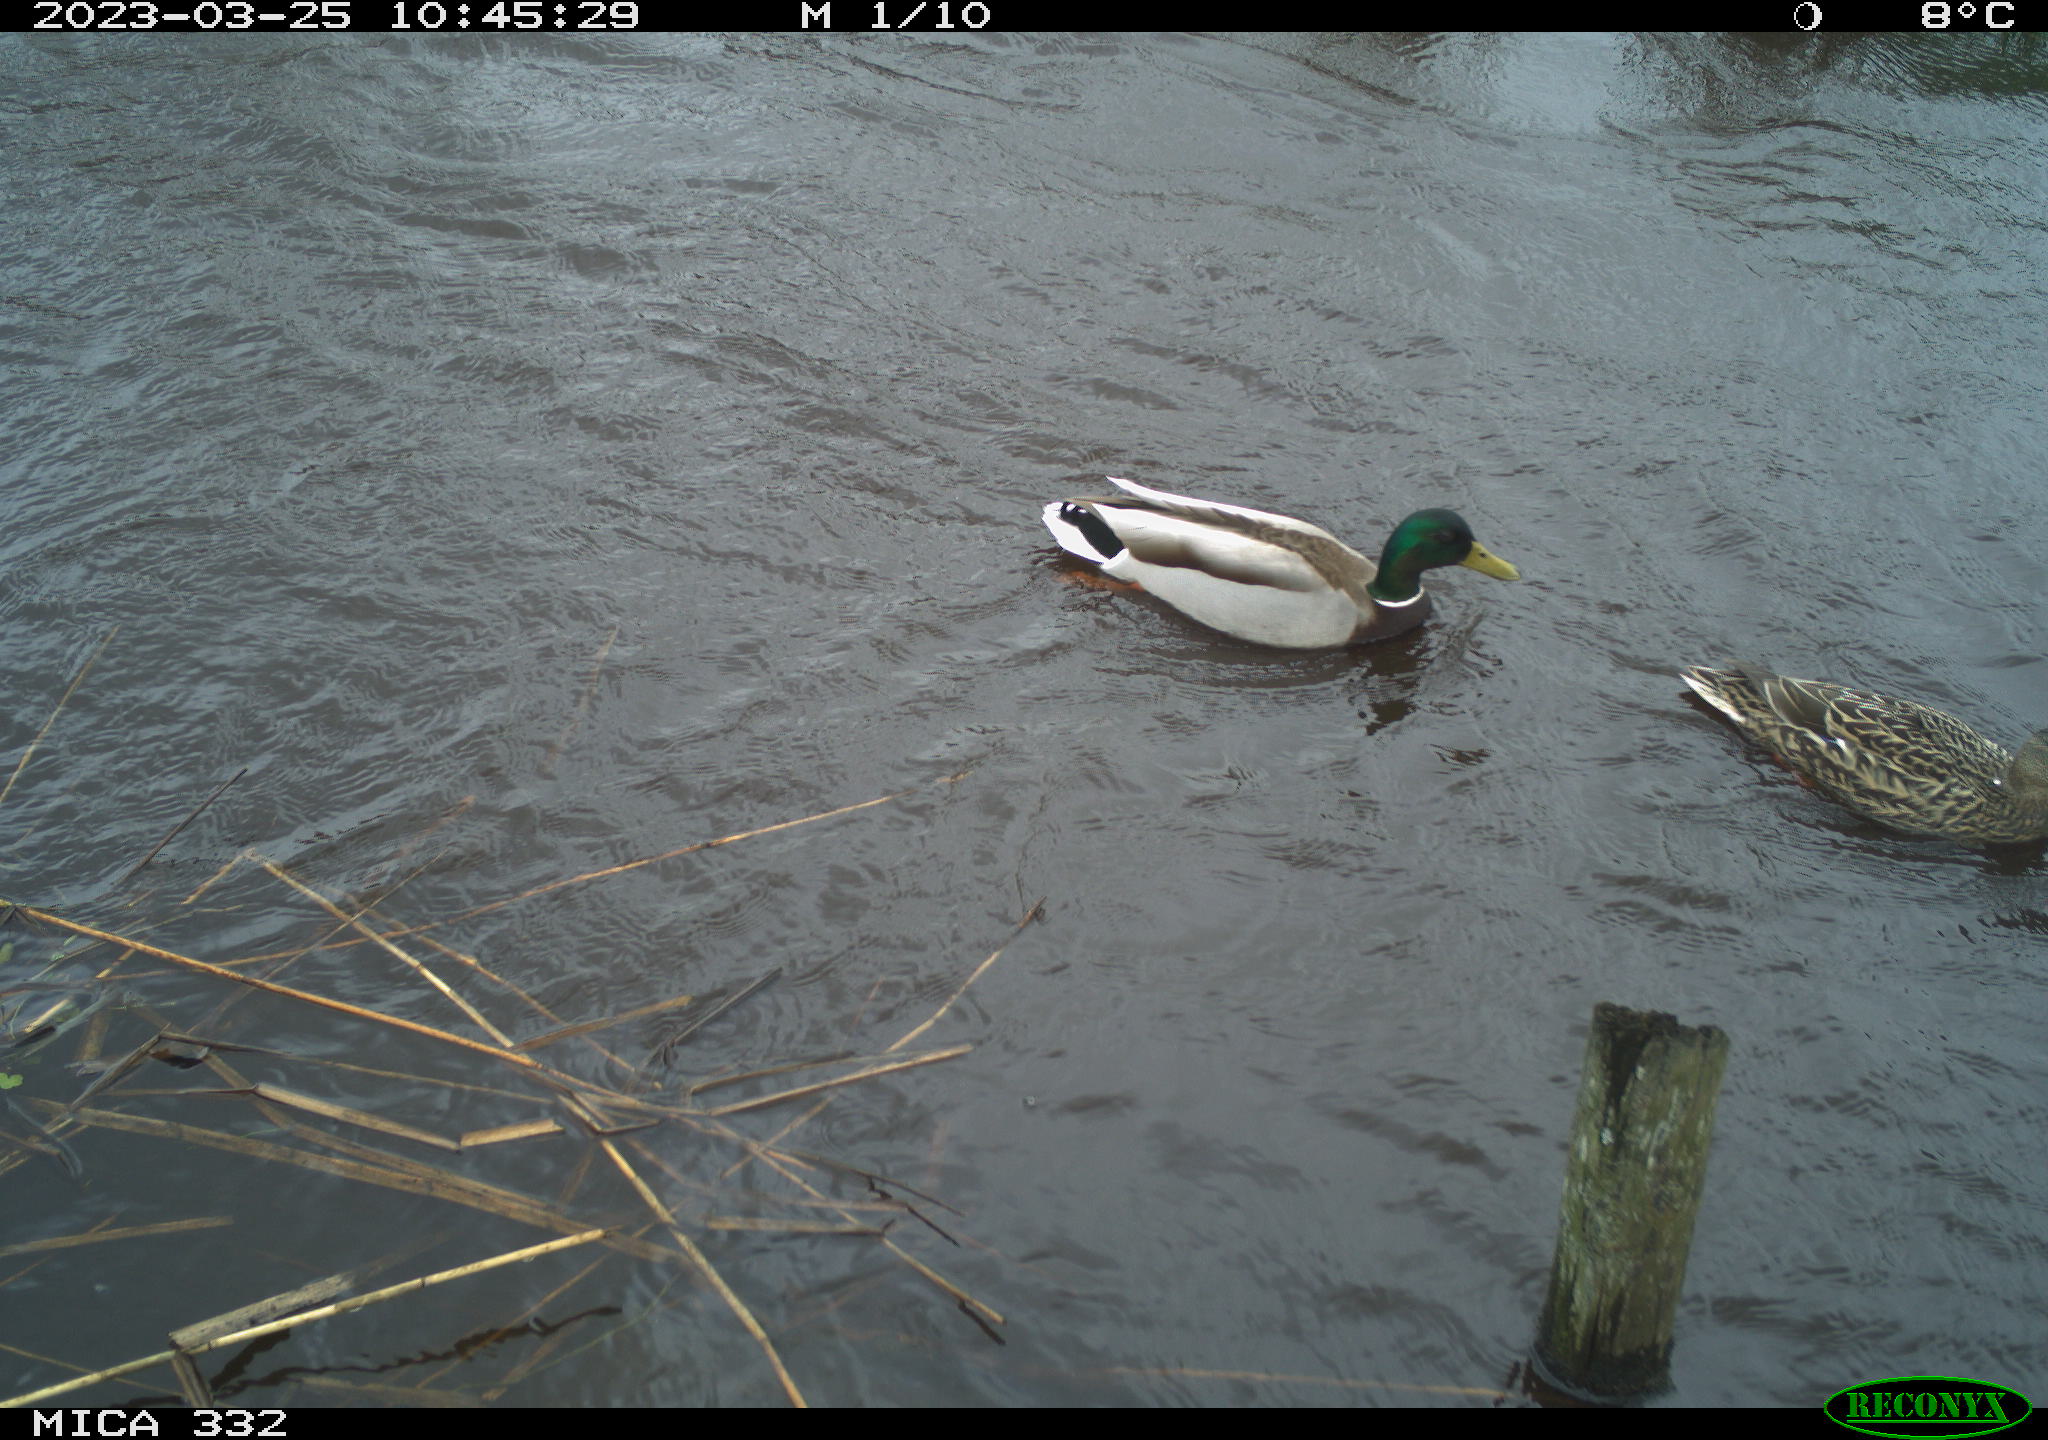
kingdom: Animalia
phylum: Chordata
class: Aves
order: Anseriformes
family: Anatidae
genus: Anas
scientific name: Anas
